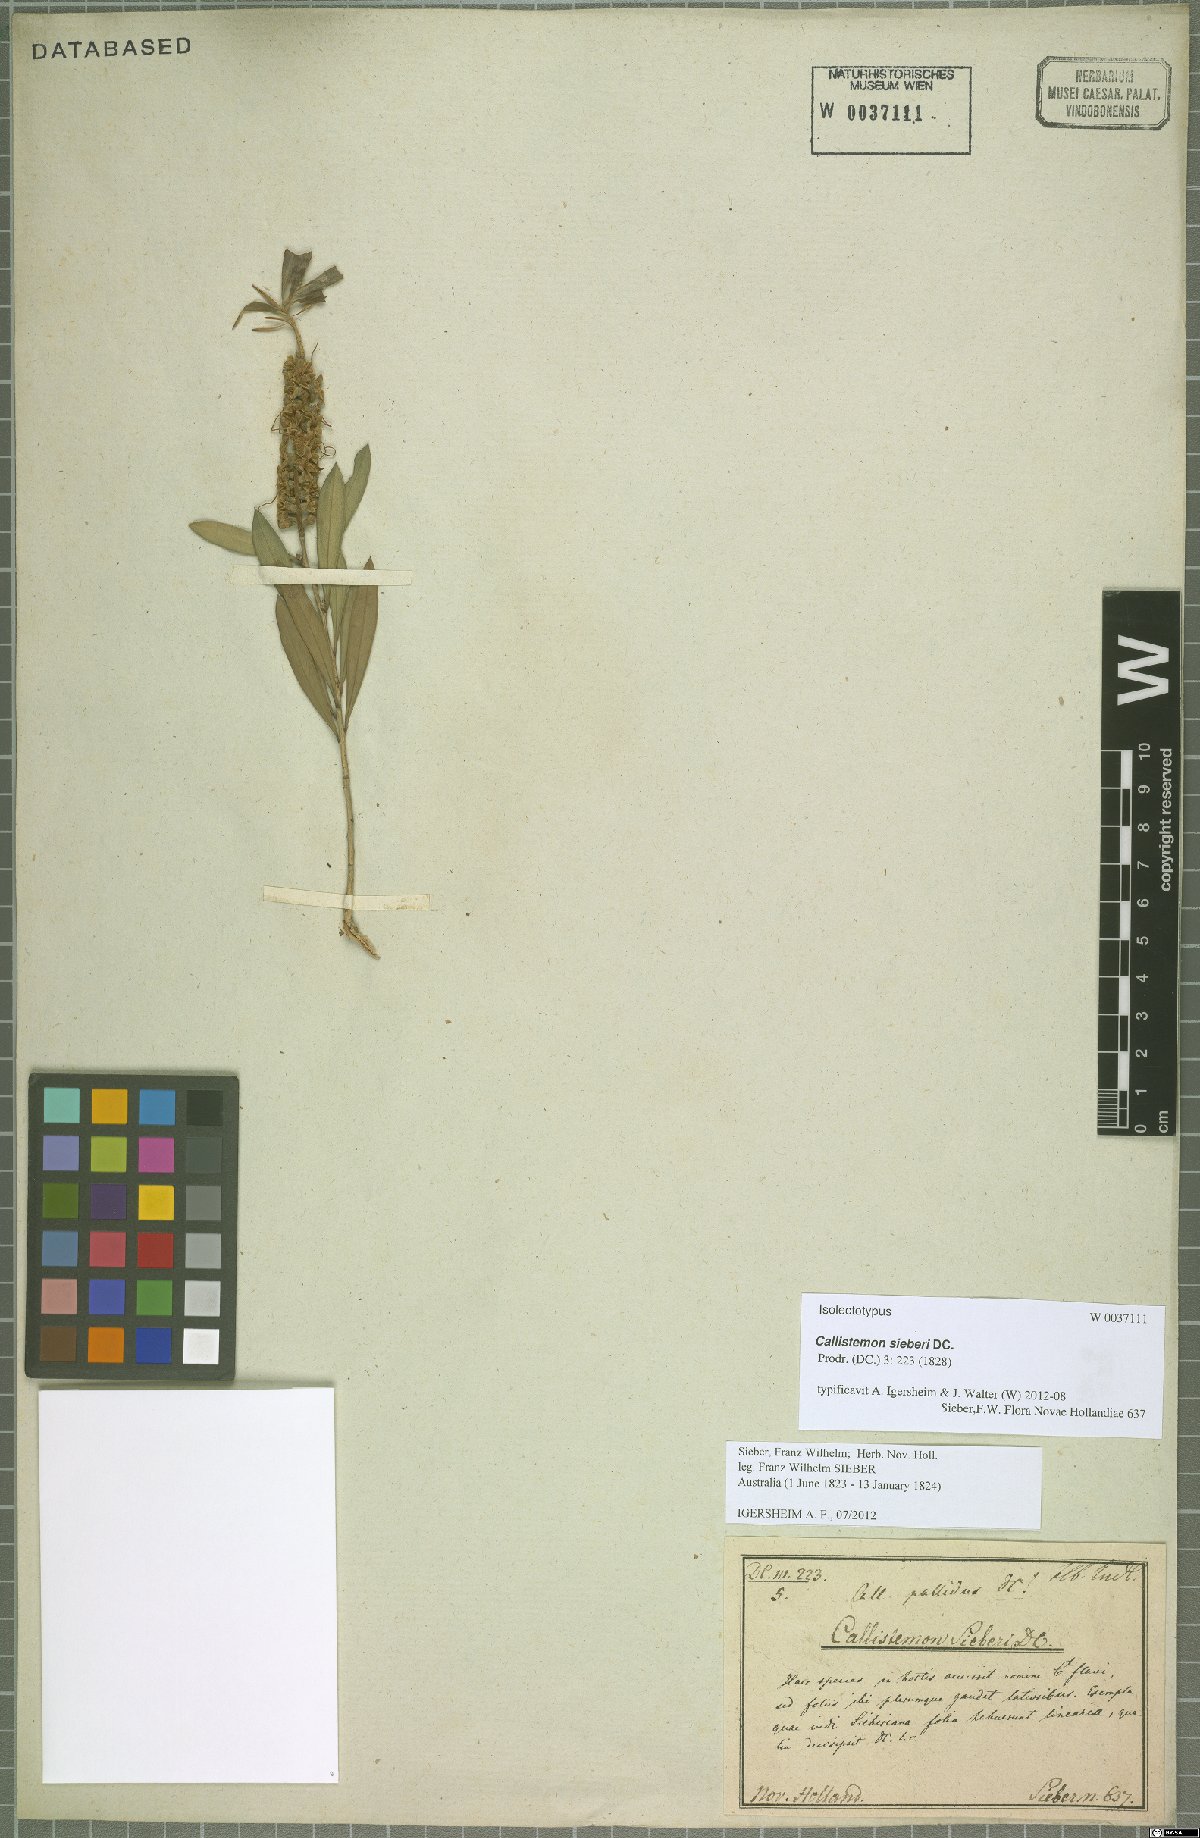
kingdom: Plantae
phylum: Tracheophyta
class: Magnoliopsida
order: Myrtales
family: Myrtaceae
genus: Callistemon
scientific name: Callistemon paludosus
